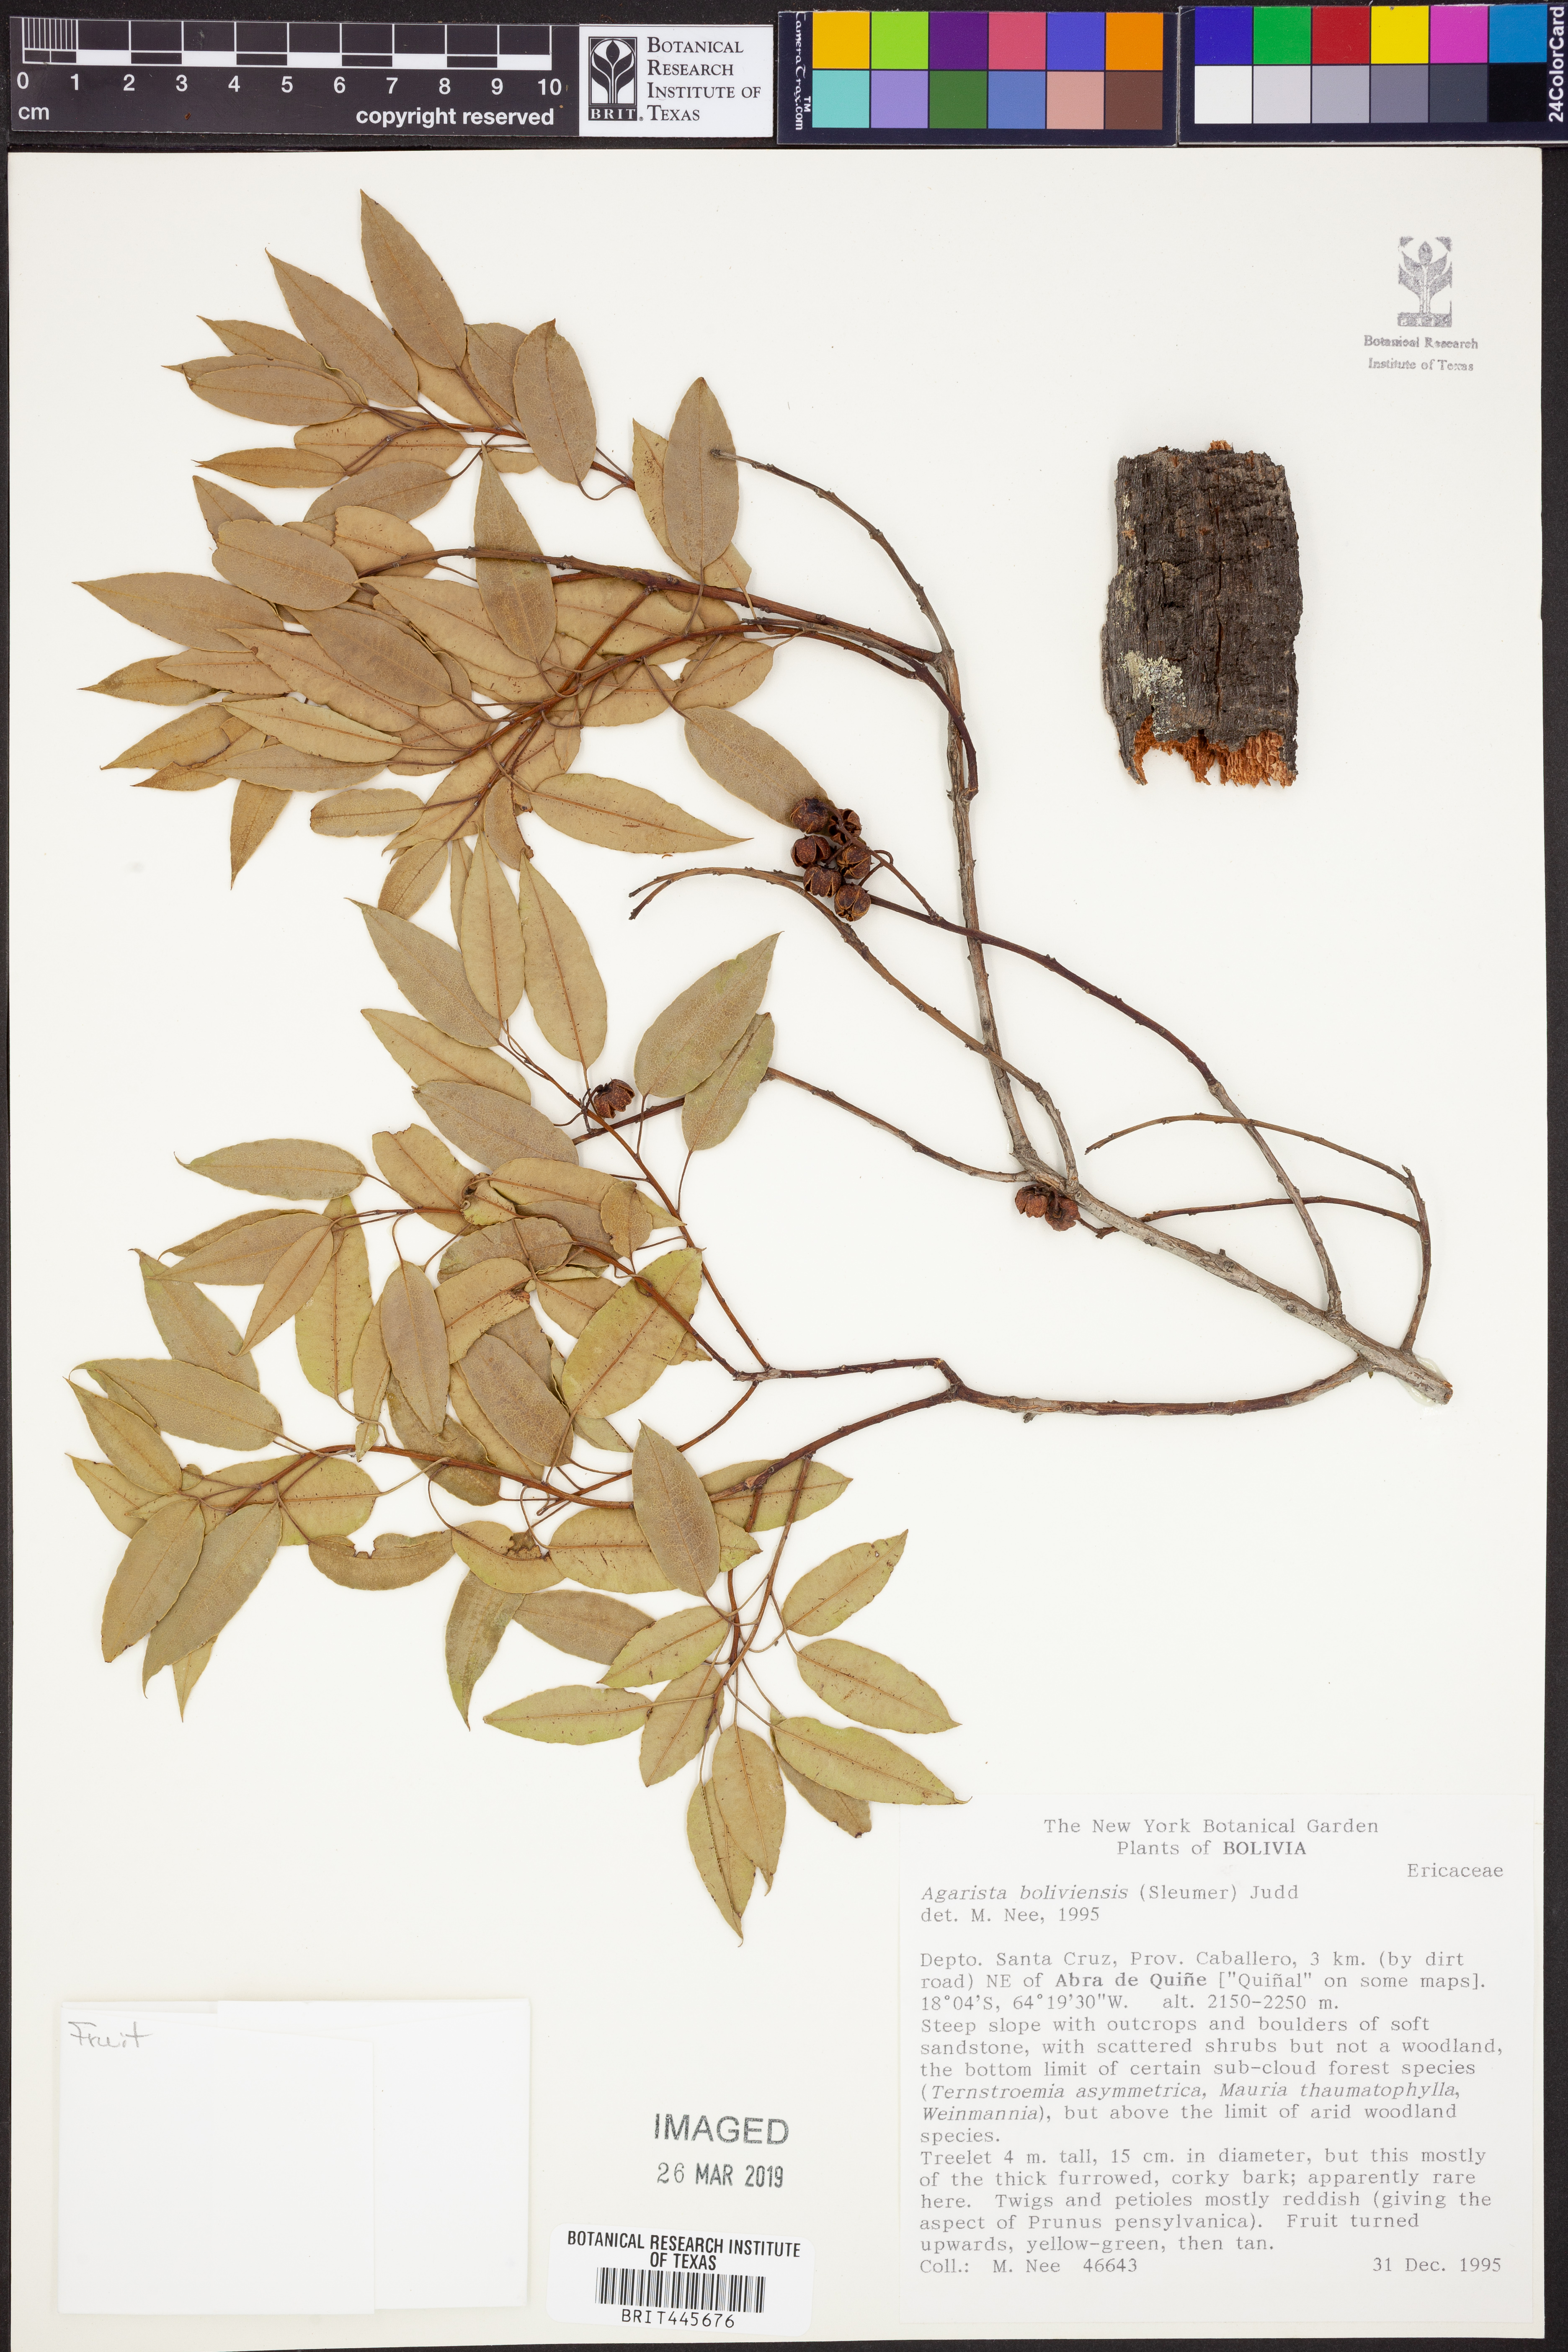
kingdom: Plantae
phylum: Tracheophyta
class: Magnoliopsida
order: Ericales
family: Ericaceae
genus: Agarista
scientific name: Agarista boliviensis
